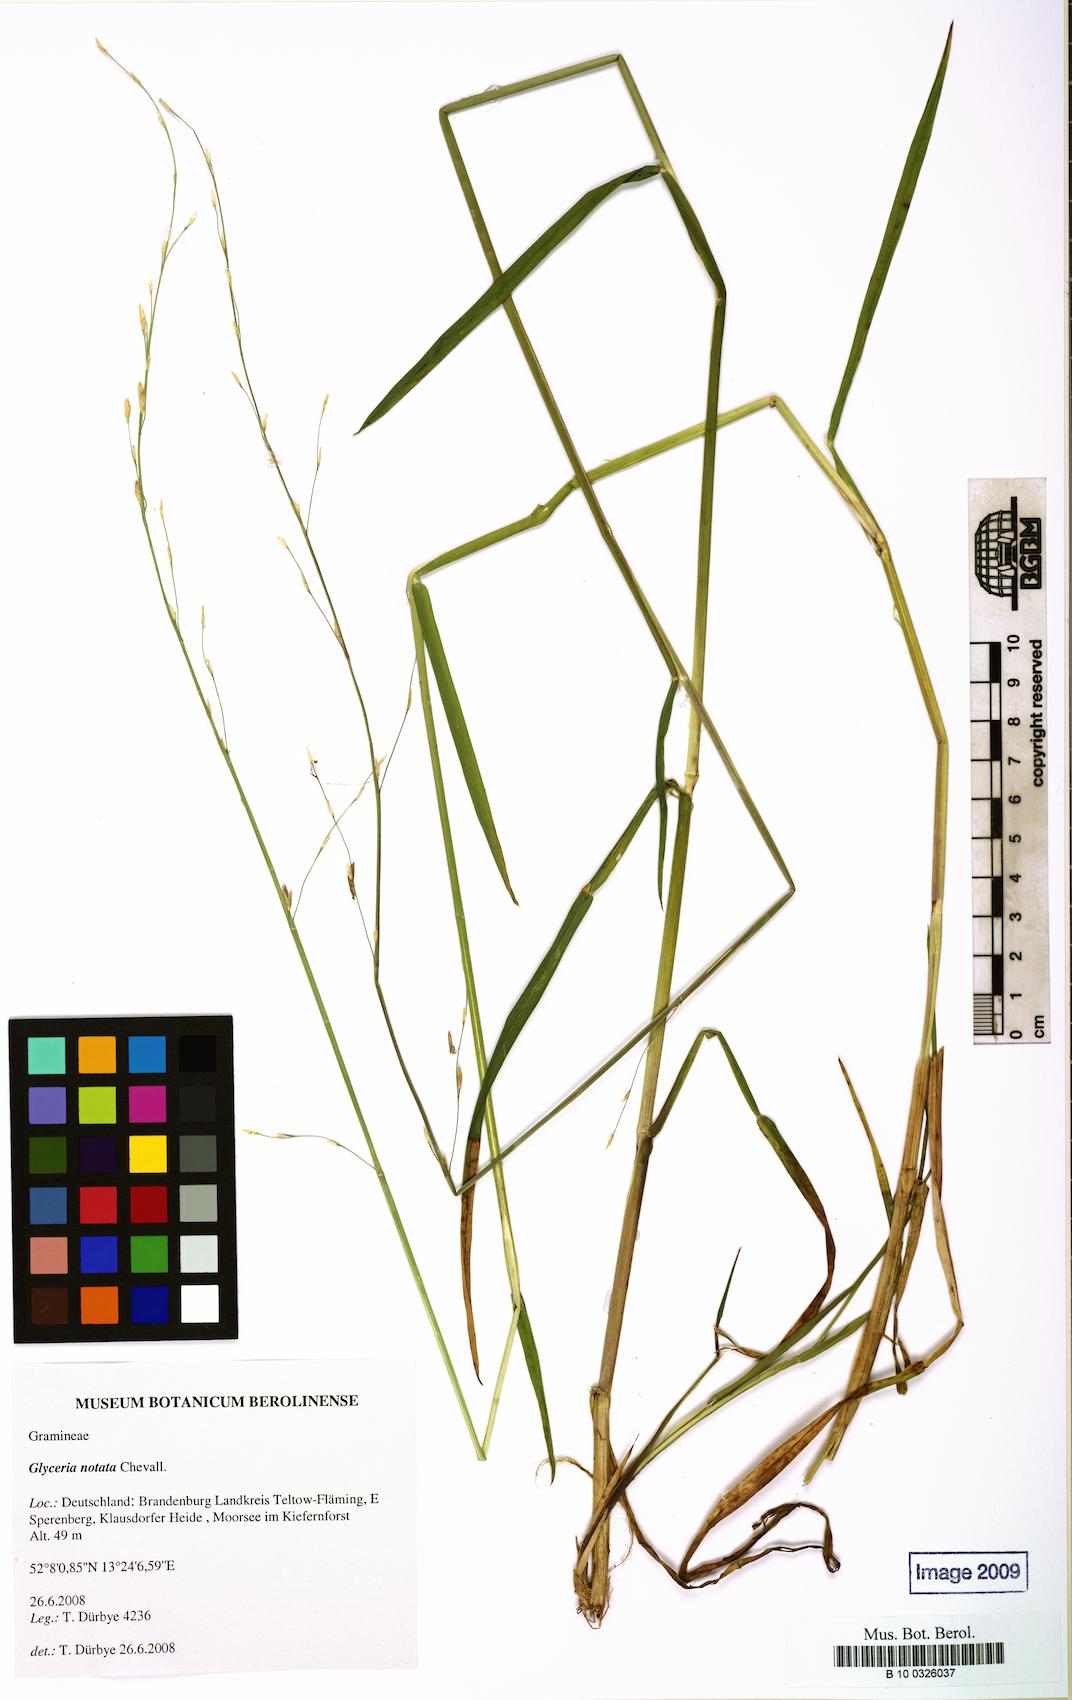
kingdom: Plantae
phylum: Tracheophyta
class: Liliopsida
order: Poales
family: Poaceae
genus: Glyceria
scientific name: Glyceria notata
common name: Plicate sweet-grass
